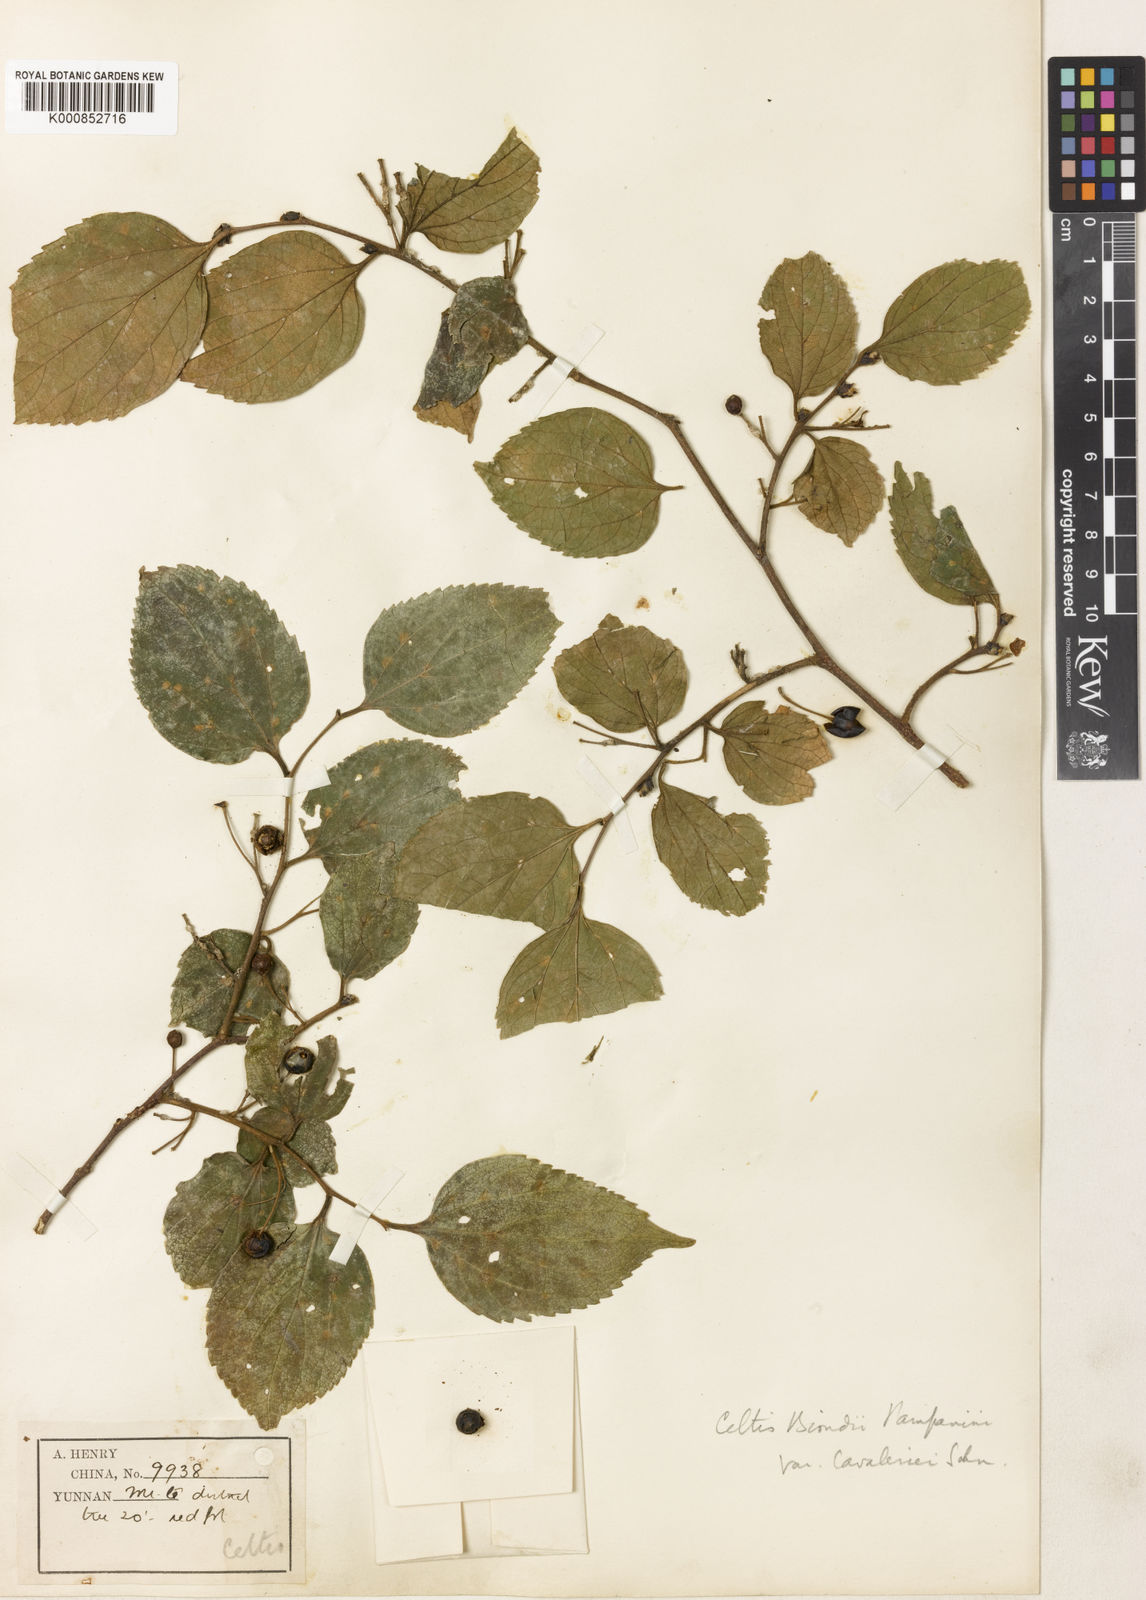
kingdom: Plantae
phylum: Tracheophyta
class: Magnoliopsida
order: Rosales
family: Cannabaceae
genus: Celtis
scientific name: Celtis biondii
